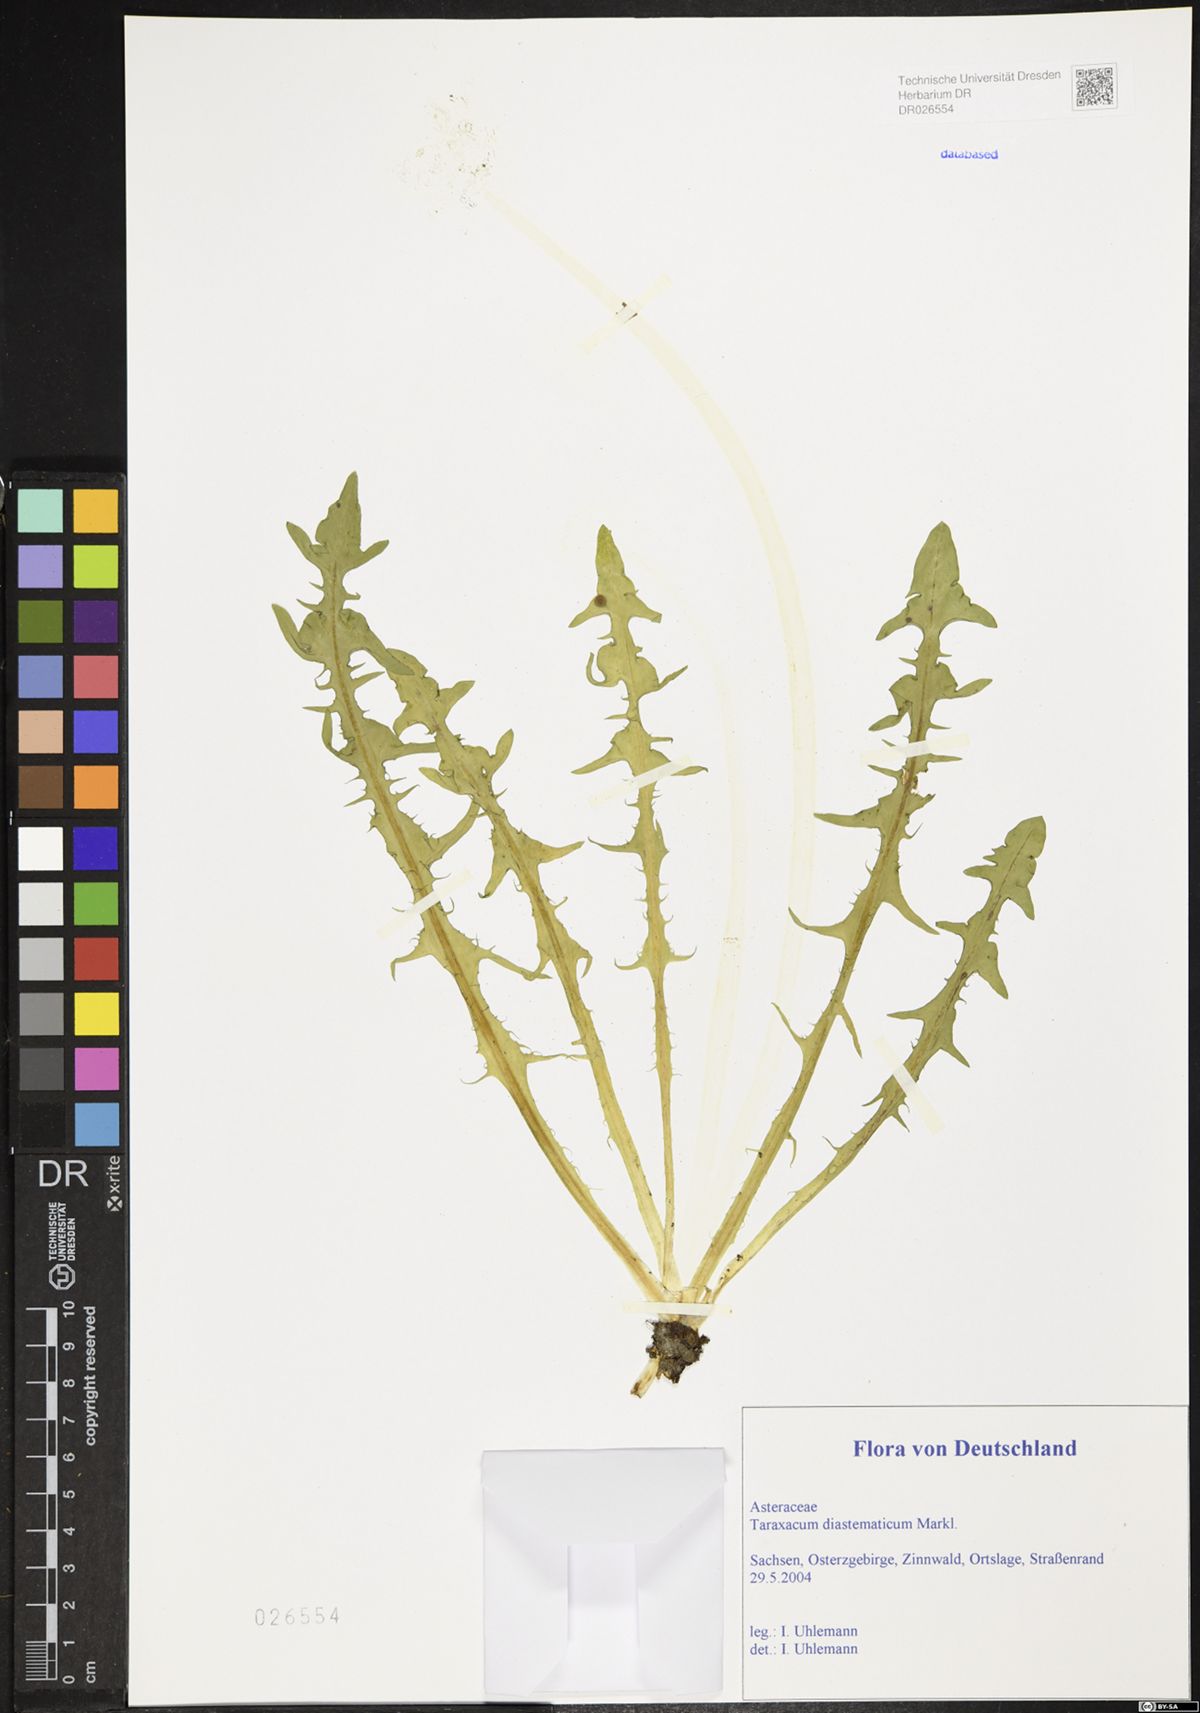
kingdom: Plantae
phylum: Tracheophyta
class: Magnoliopsida
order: Asterales
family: Asteraceae
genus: Taraxacum
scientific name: Taraxacum diastematicum
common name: Bulbous-lobed dandelion
